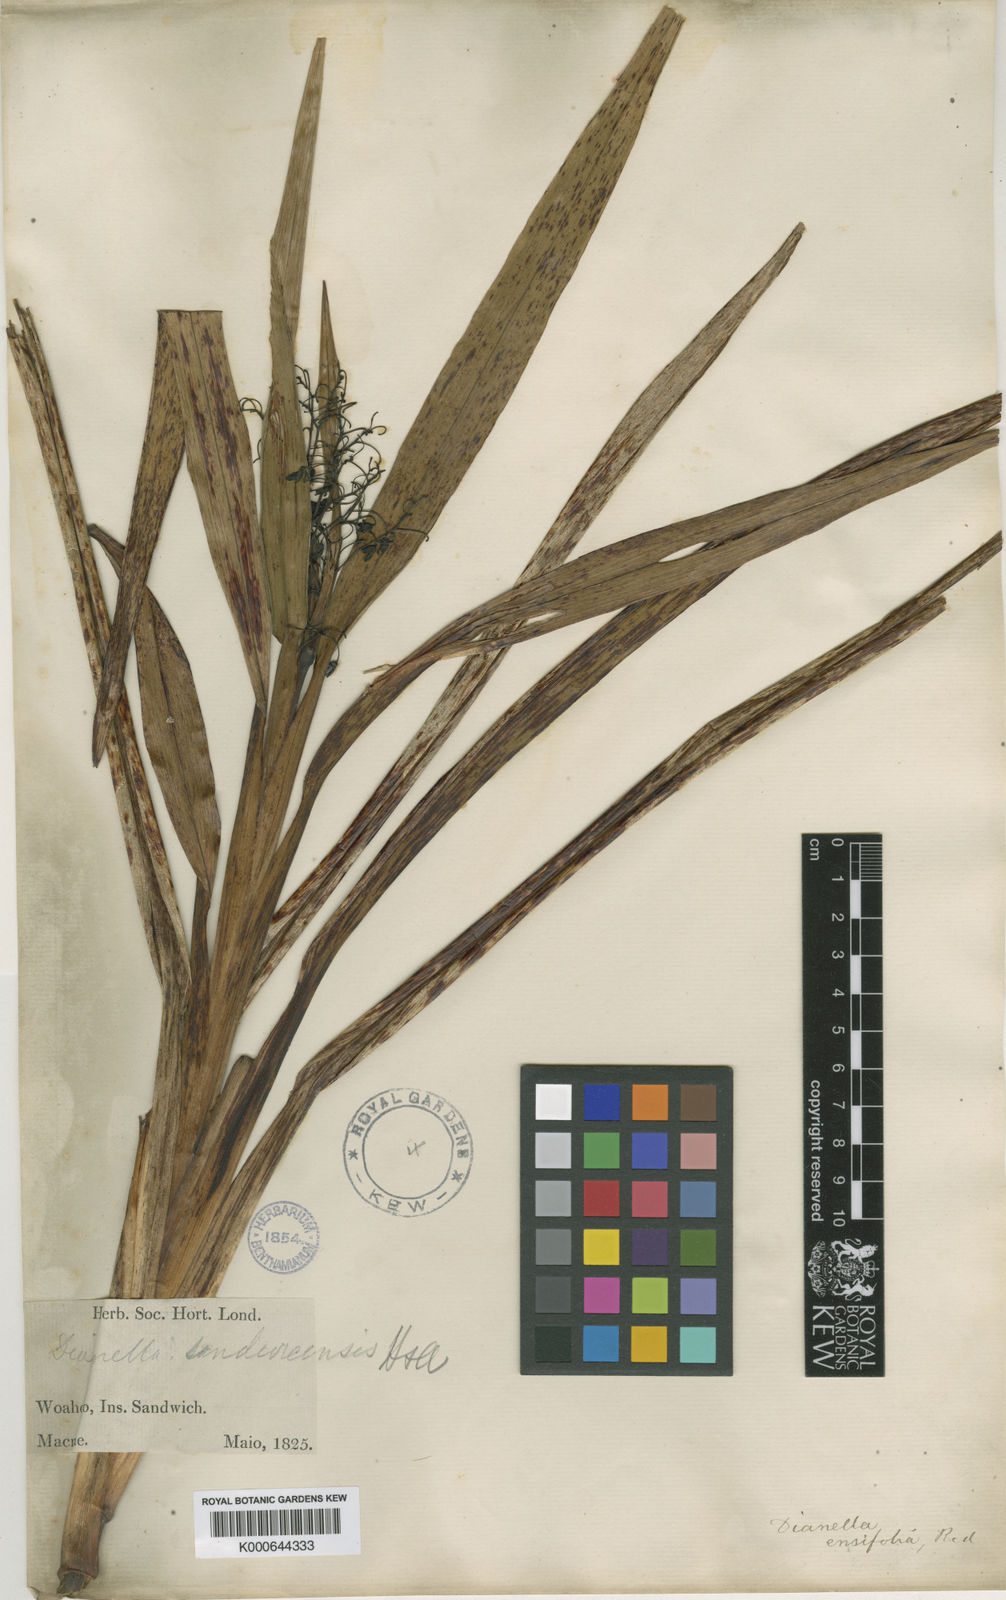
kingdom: Plantae
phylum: Tracheophyta
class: Liliopsida
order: Asparagales
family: Asphodelaceae
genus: Dianella
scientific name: Dianella sandwicensis
